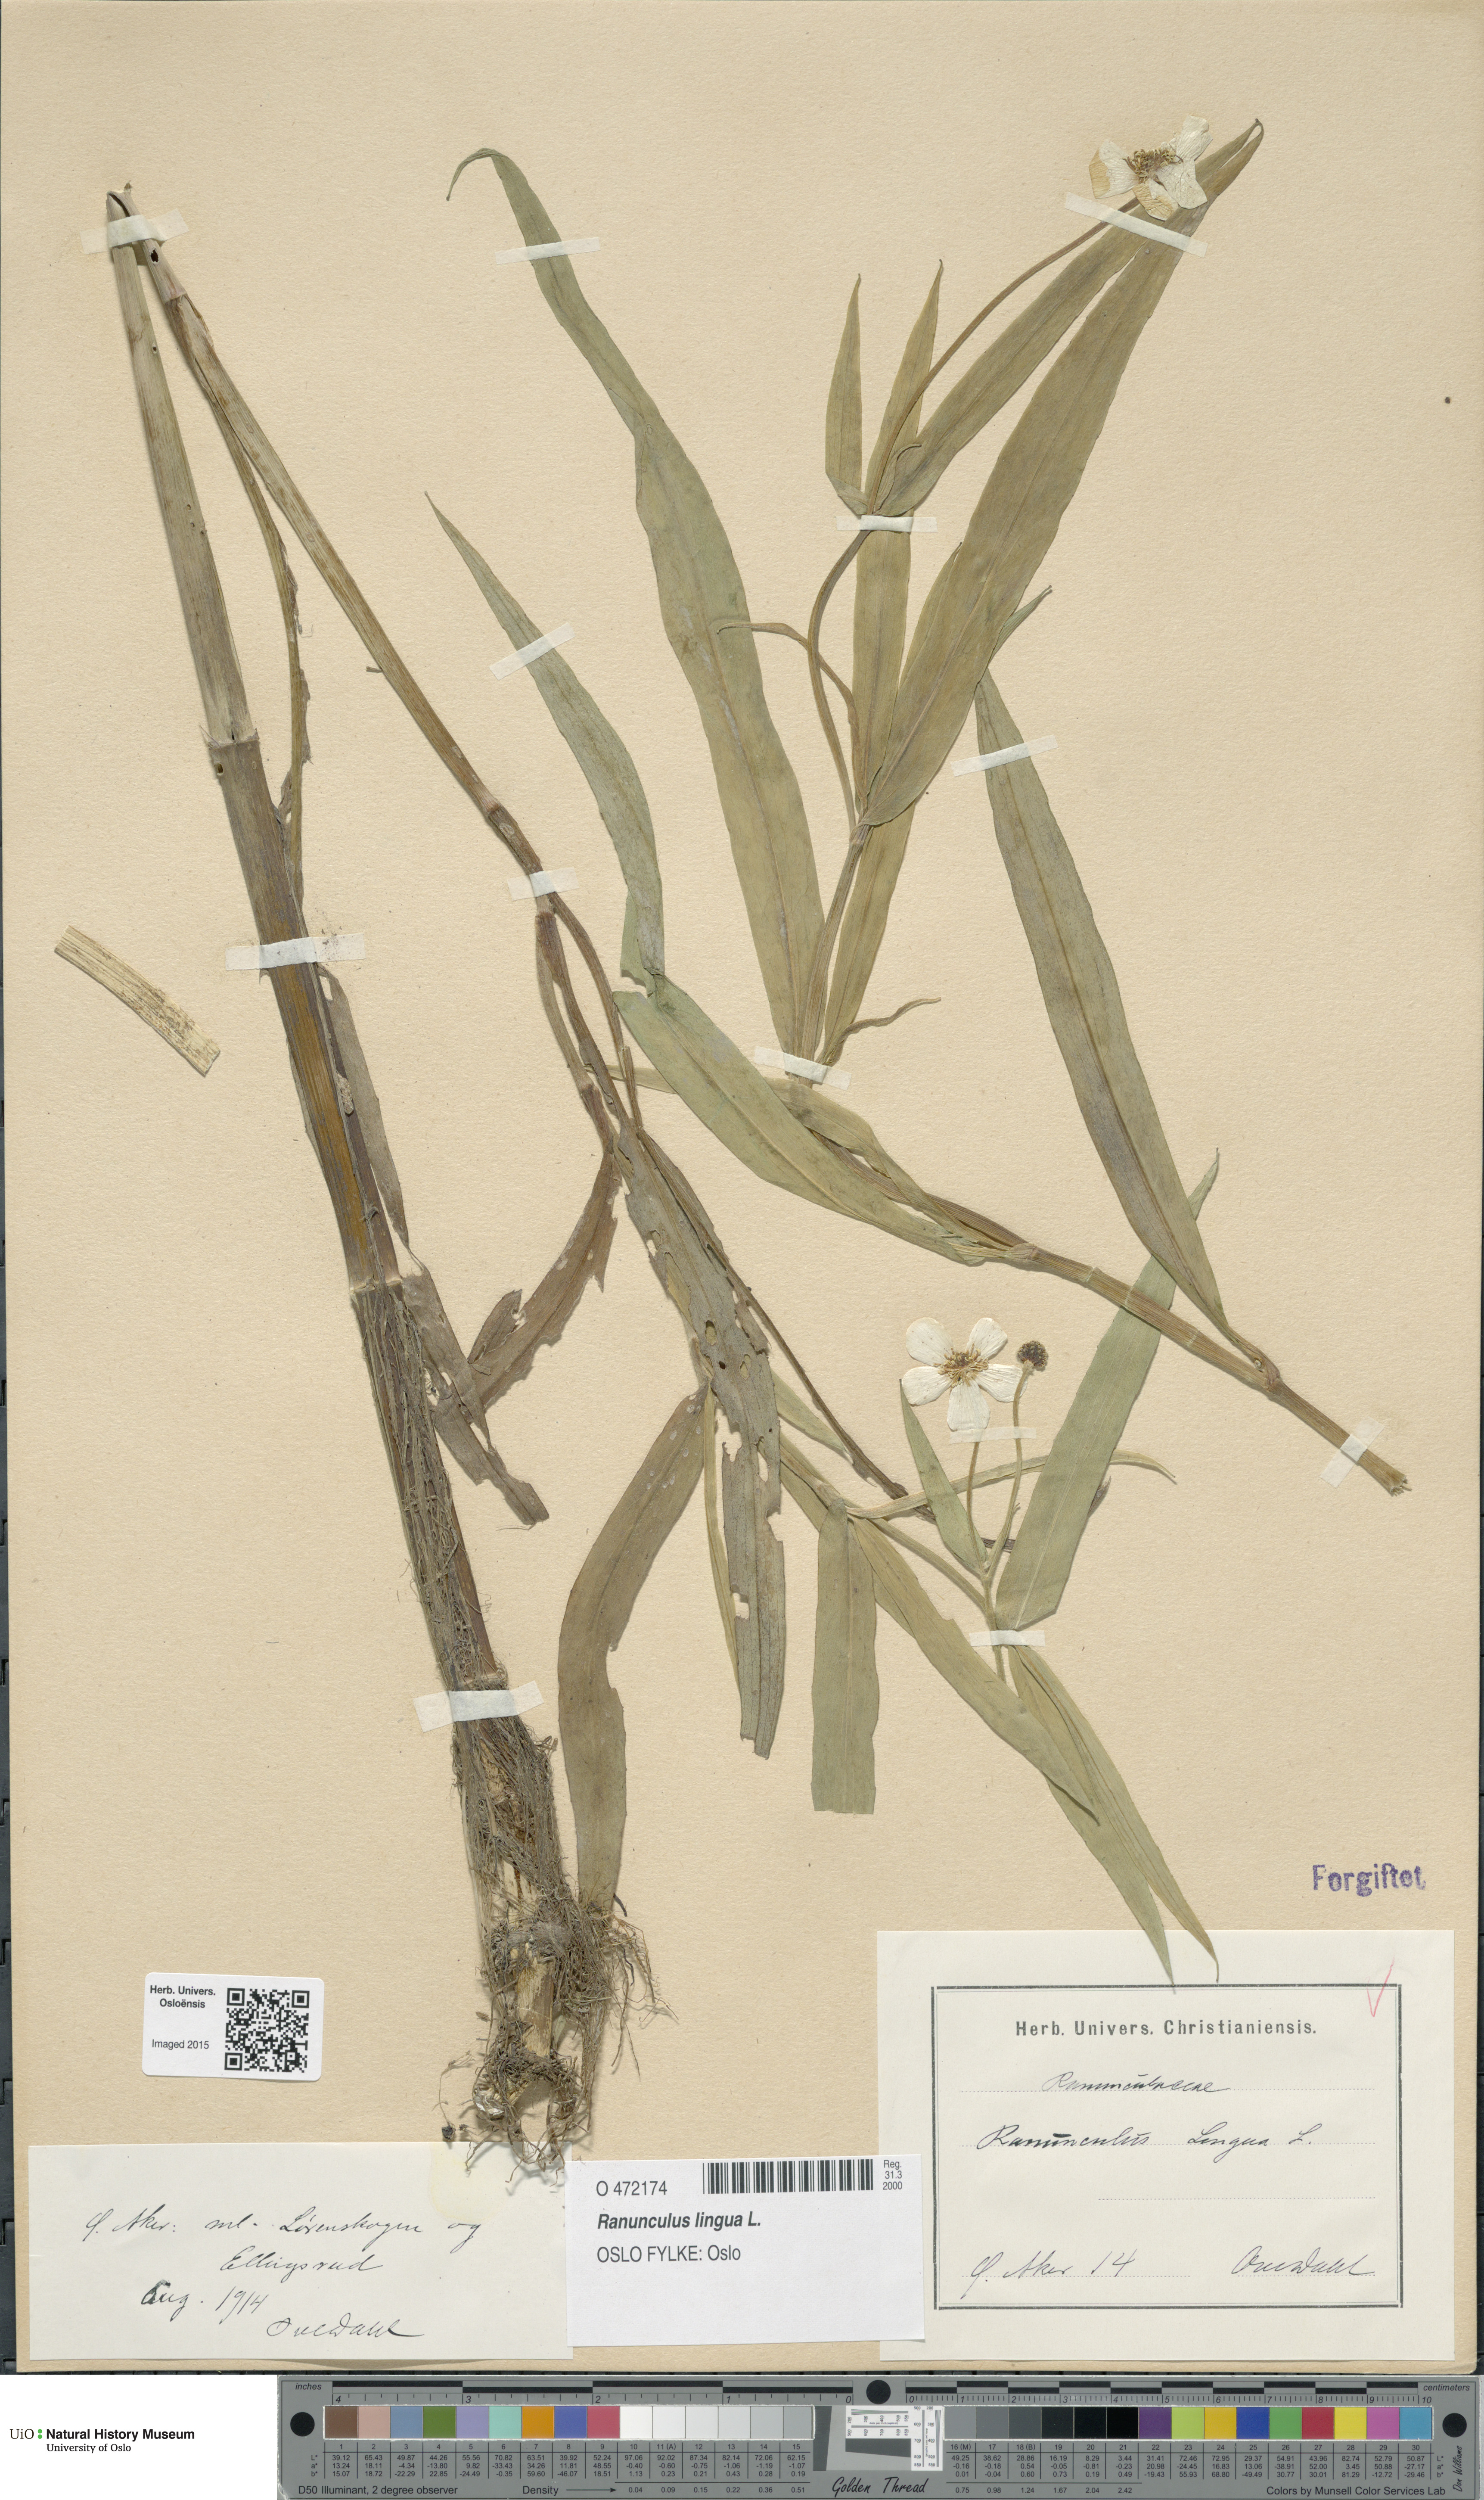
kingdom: Plantae
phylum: Tracheophyta
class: Magnoliopsida
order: Ranunculales
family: Ranunculaceae
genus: Ranunculus
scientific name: Ranunculus lingua
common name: Greater spearwort
